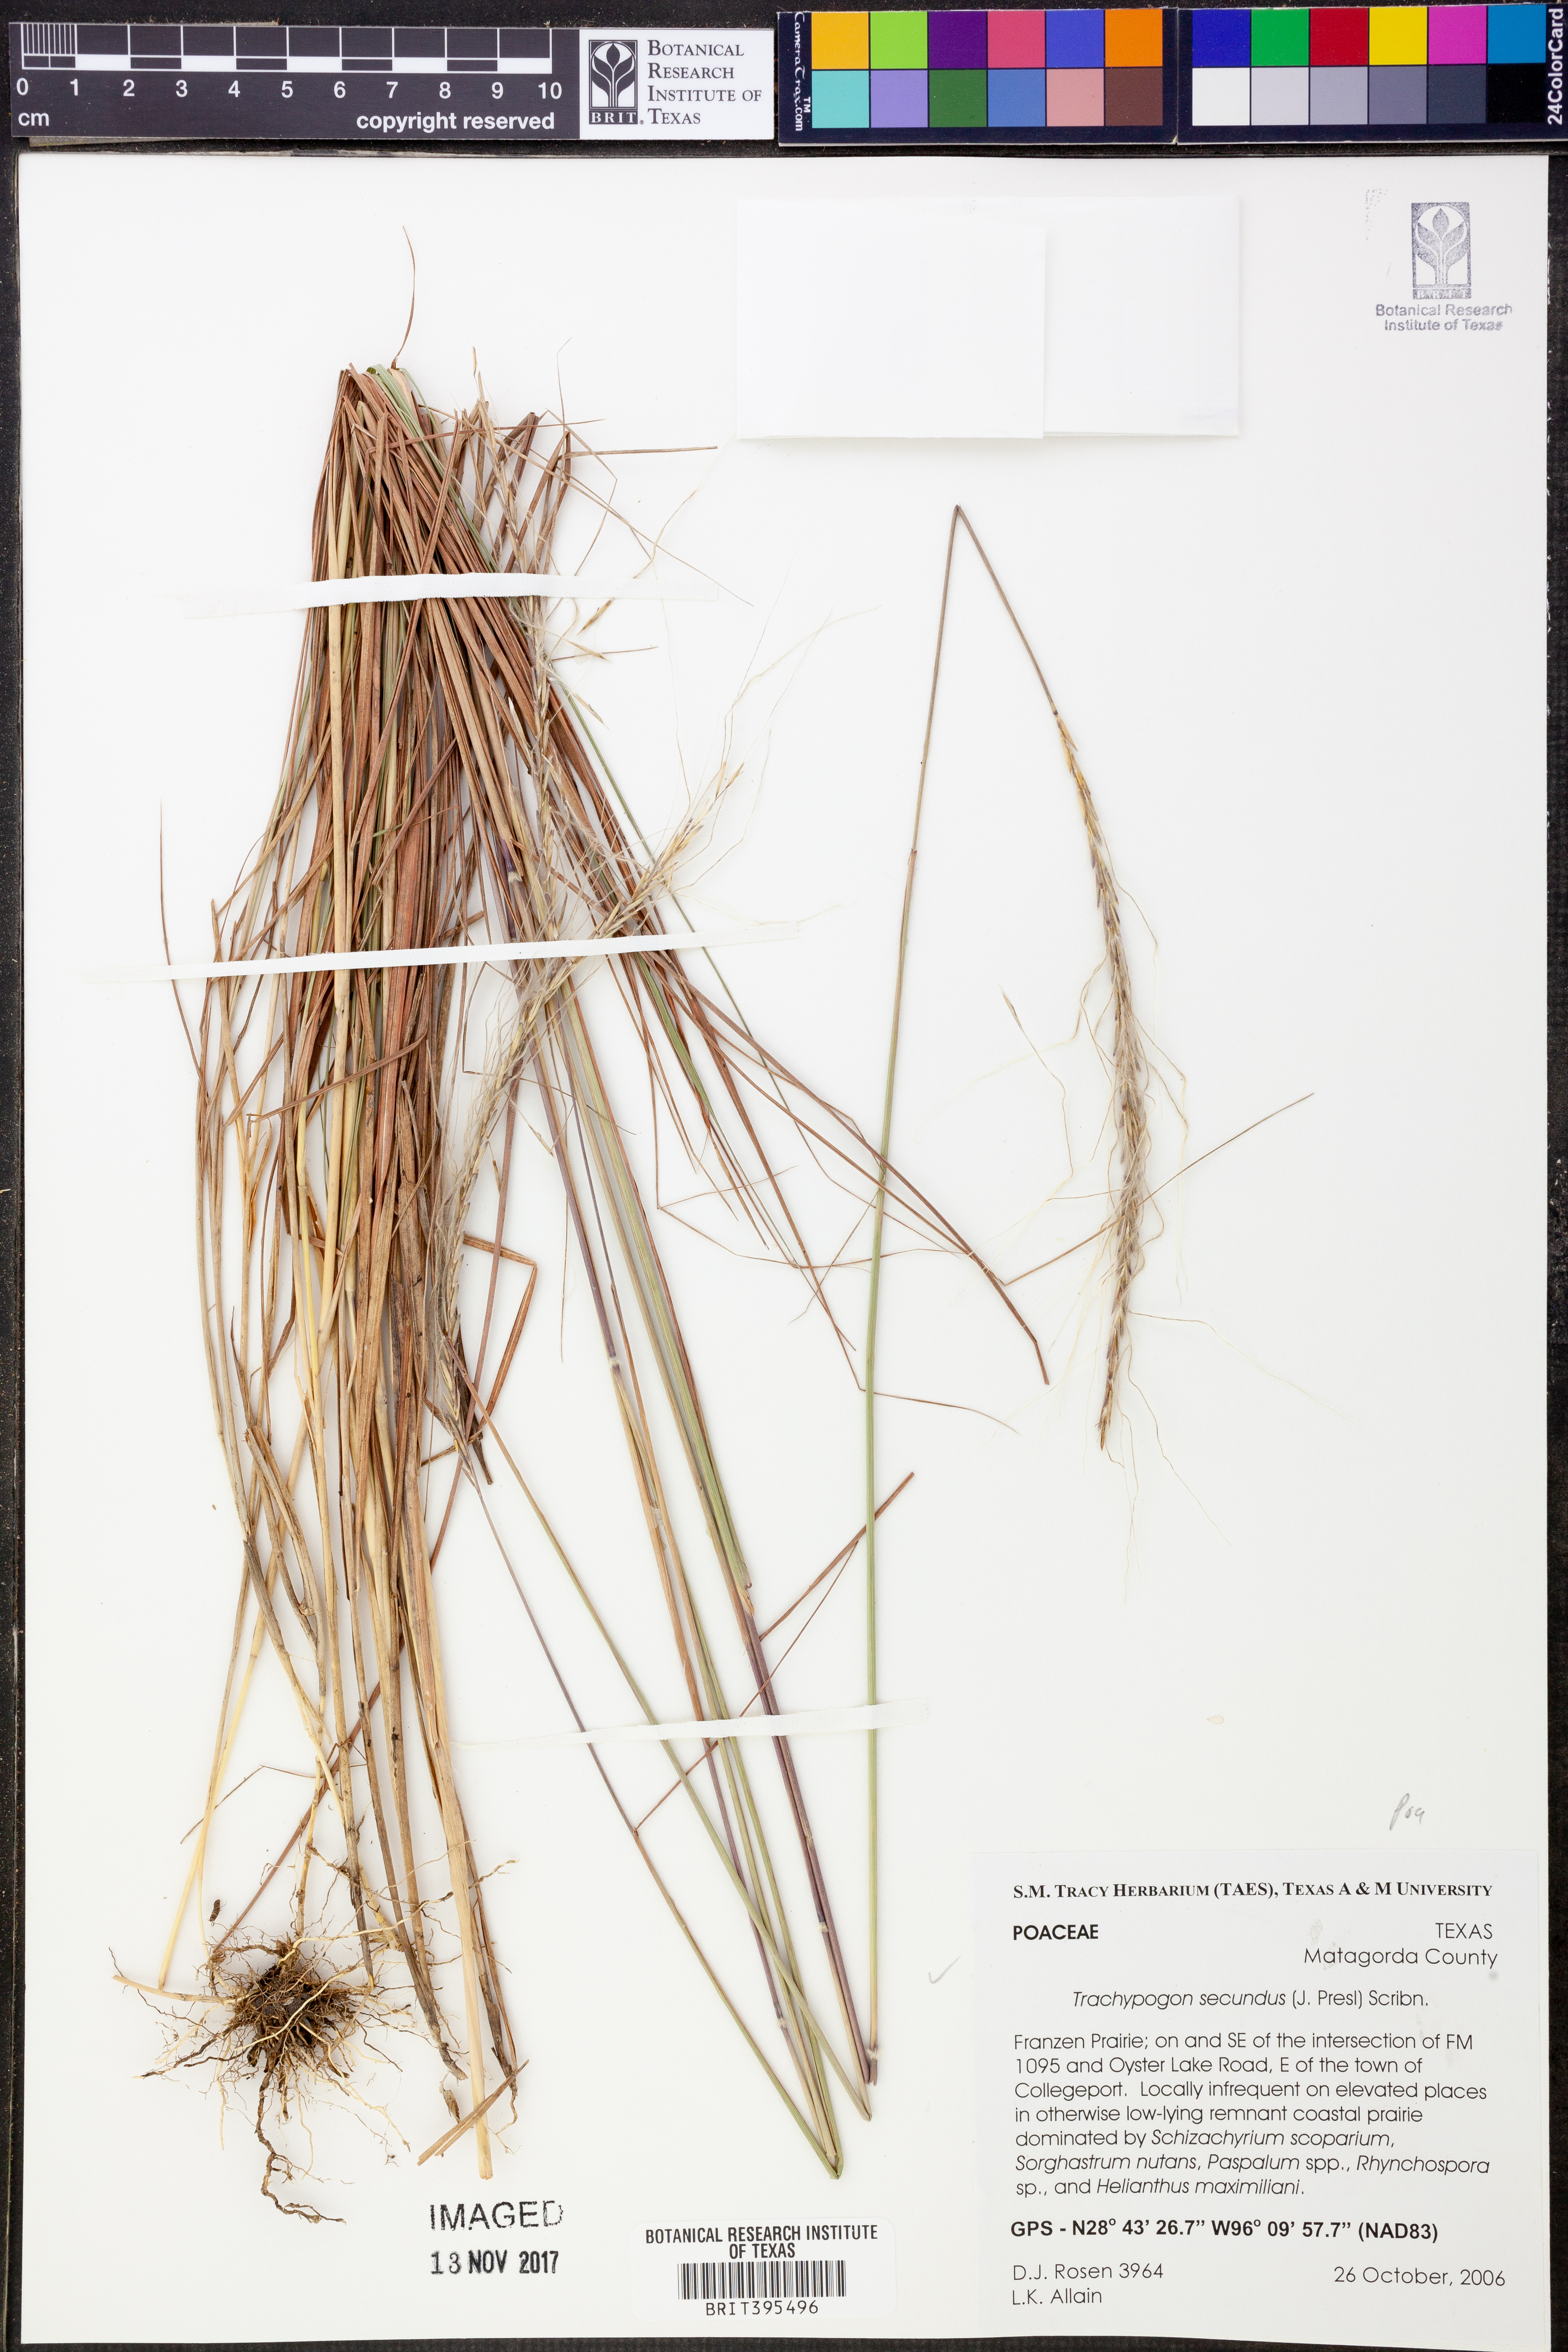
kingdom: Plantae
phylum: Tracheophyta
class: Liliopsida
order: Poales
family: Poaceae
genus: Trachypogon
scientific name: Trachypogon spicatus
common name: Crinkle-awn
